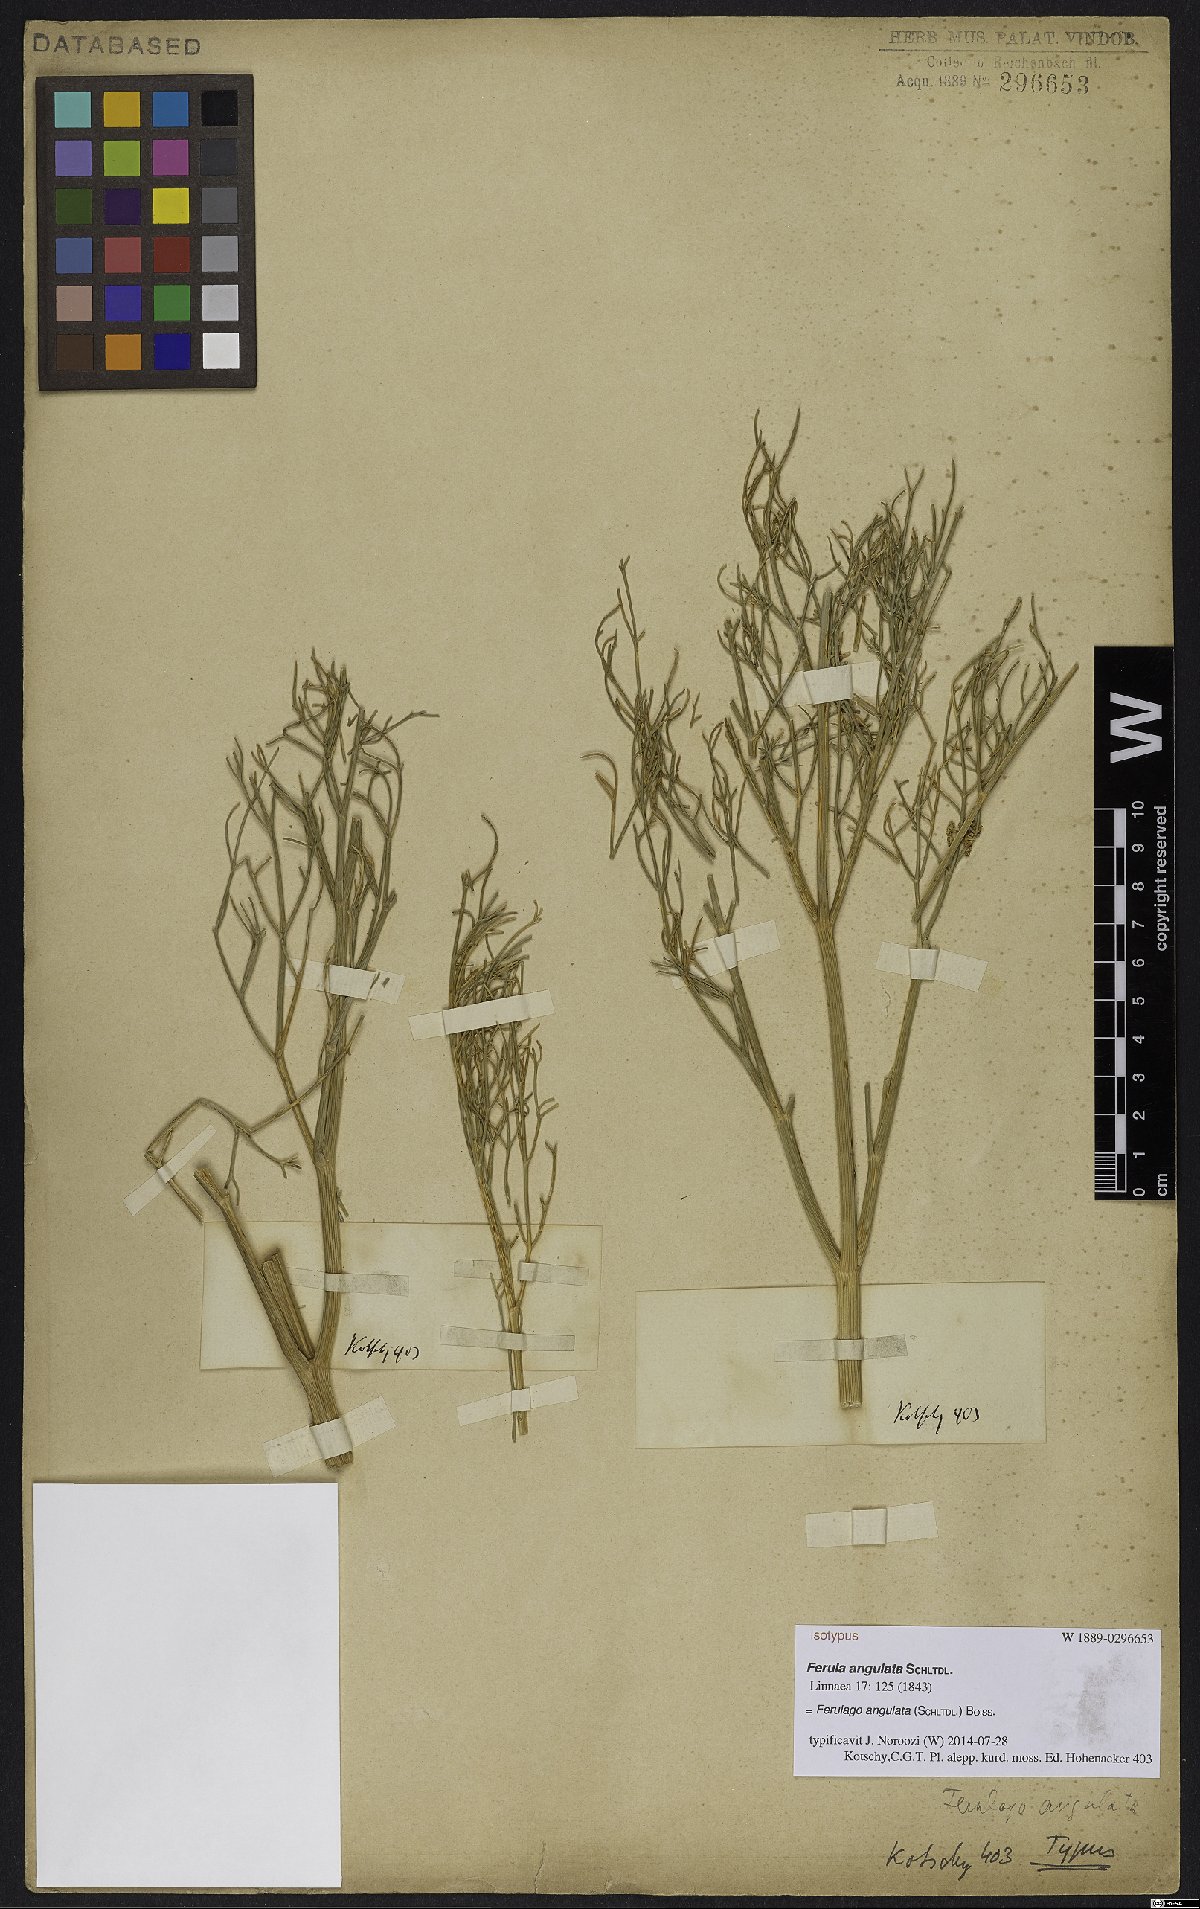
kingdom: Plantae
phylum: Tracheophyta
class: Magnoliopsida
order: Apiales
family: Apiaceae
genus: Ferulago
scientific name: Ferulago angulata
